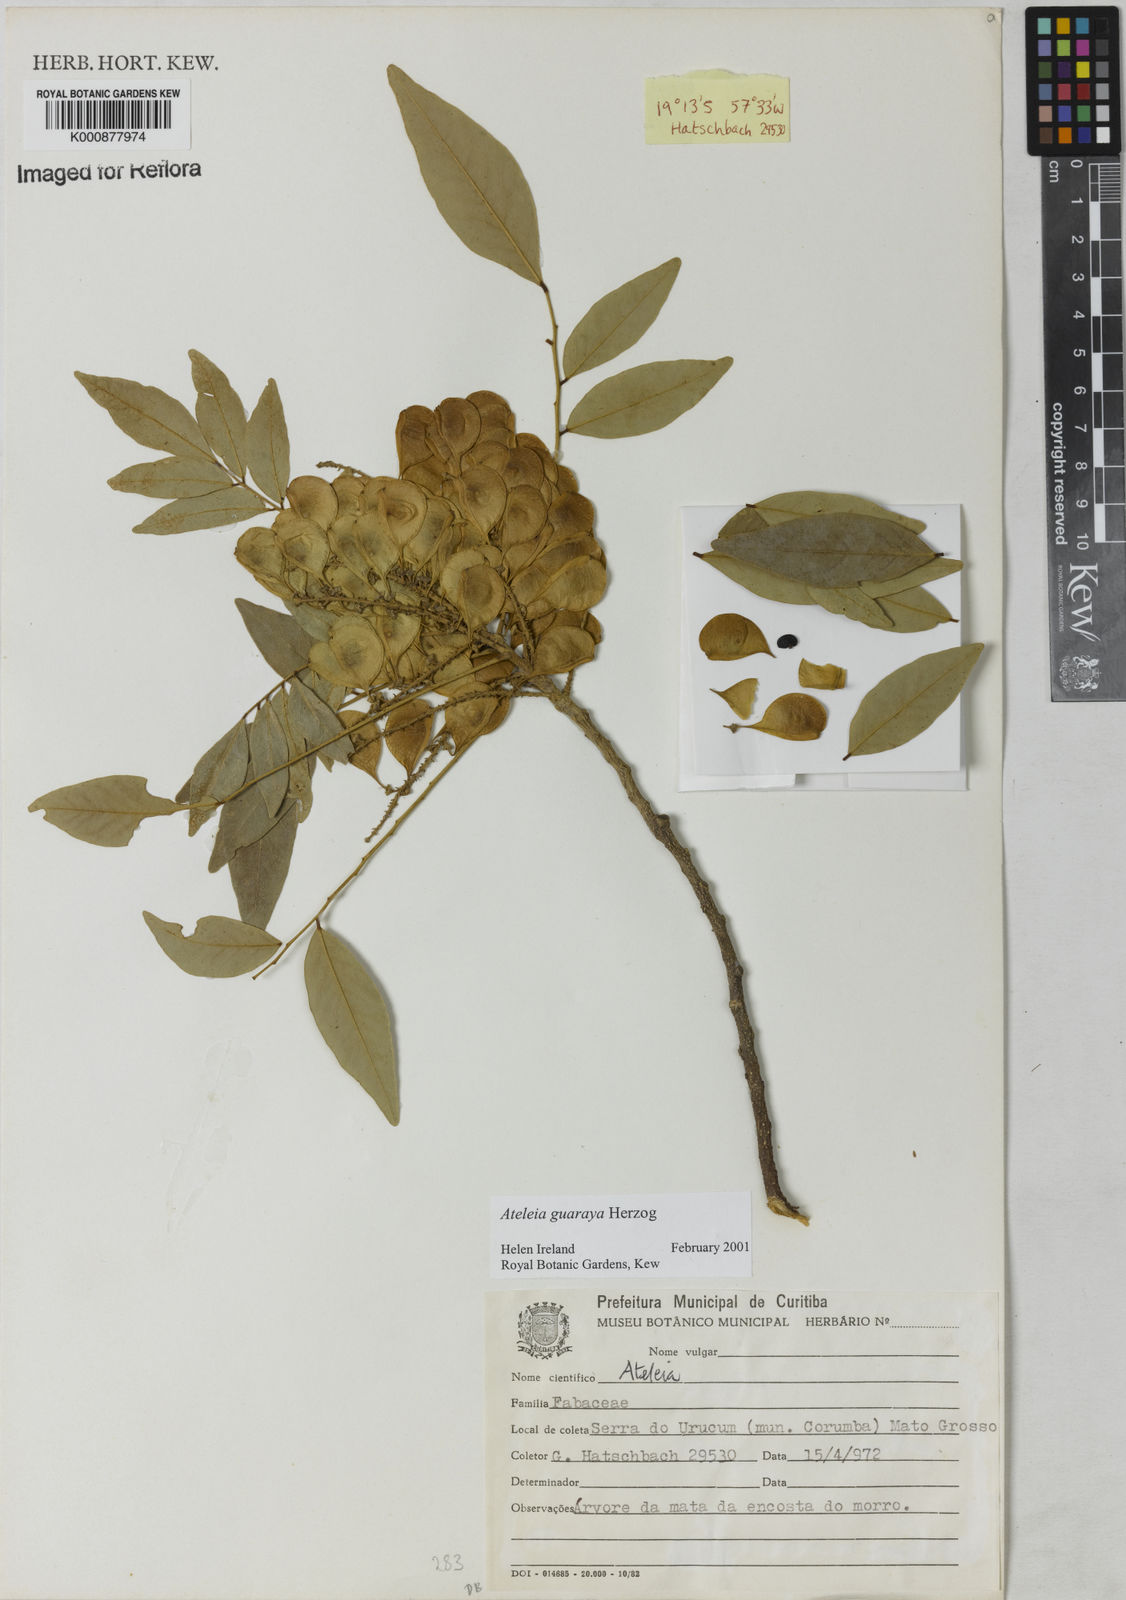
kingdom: Plantae
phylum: Tracheophyta
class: Magnoliopsida
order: Fabales
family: Fabaceae
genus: Ateleia
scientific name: Ateleia guaraya
